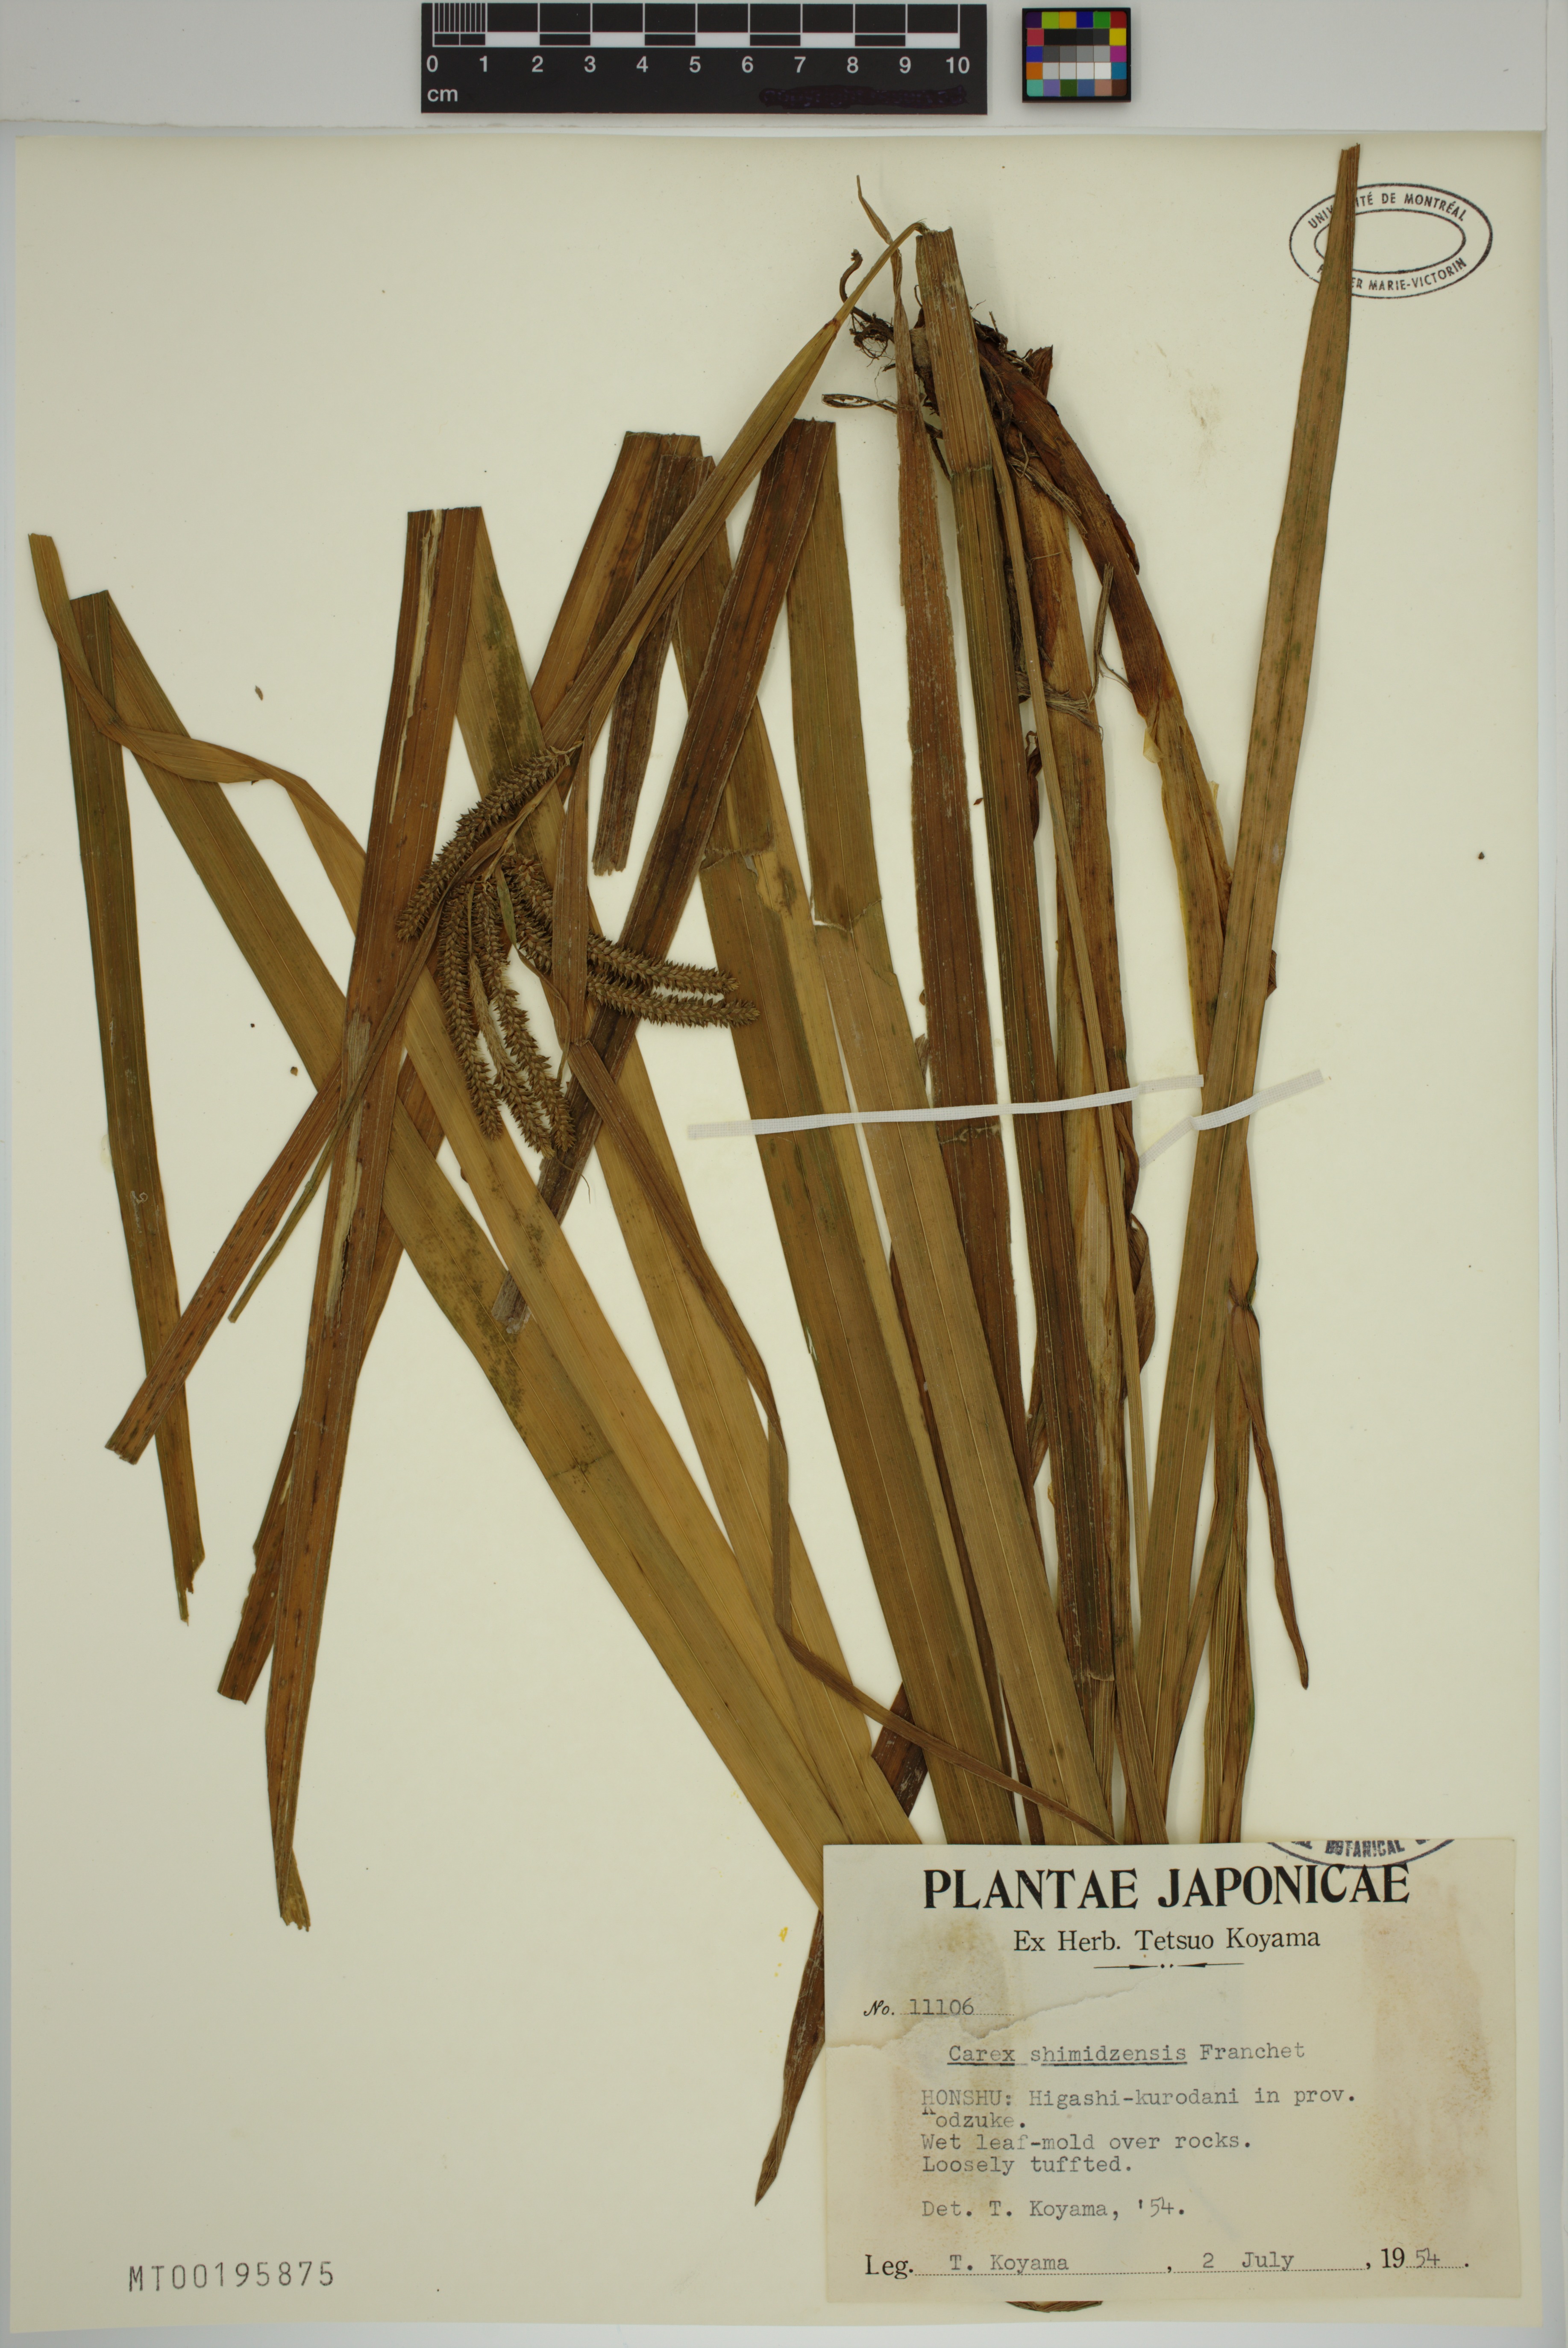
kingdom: Plantae
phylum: Tracheophyta
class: Liliopsida
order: Poales
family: Cyperaceae
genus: Carex
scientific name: Carex shimidzensis
